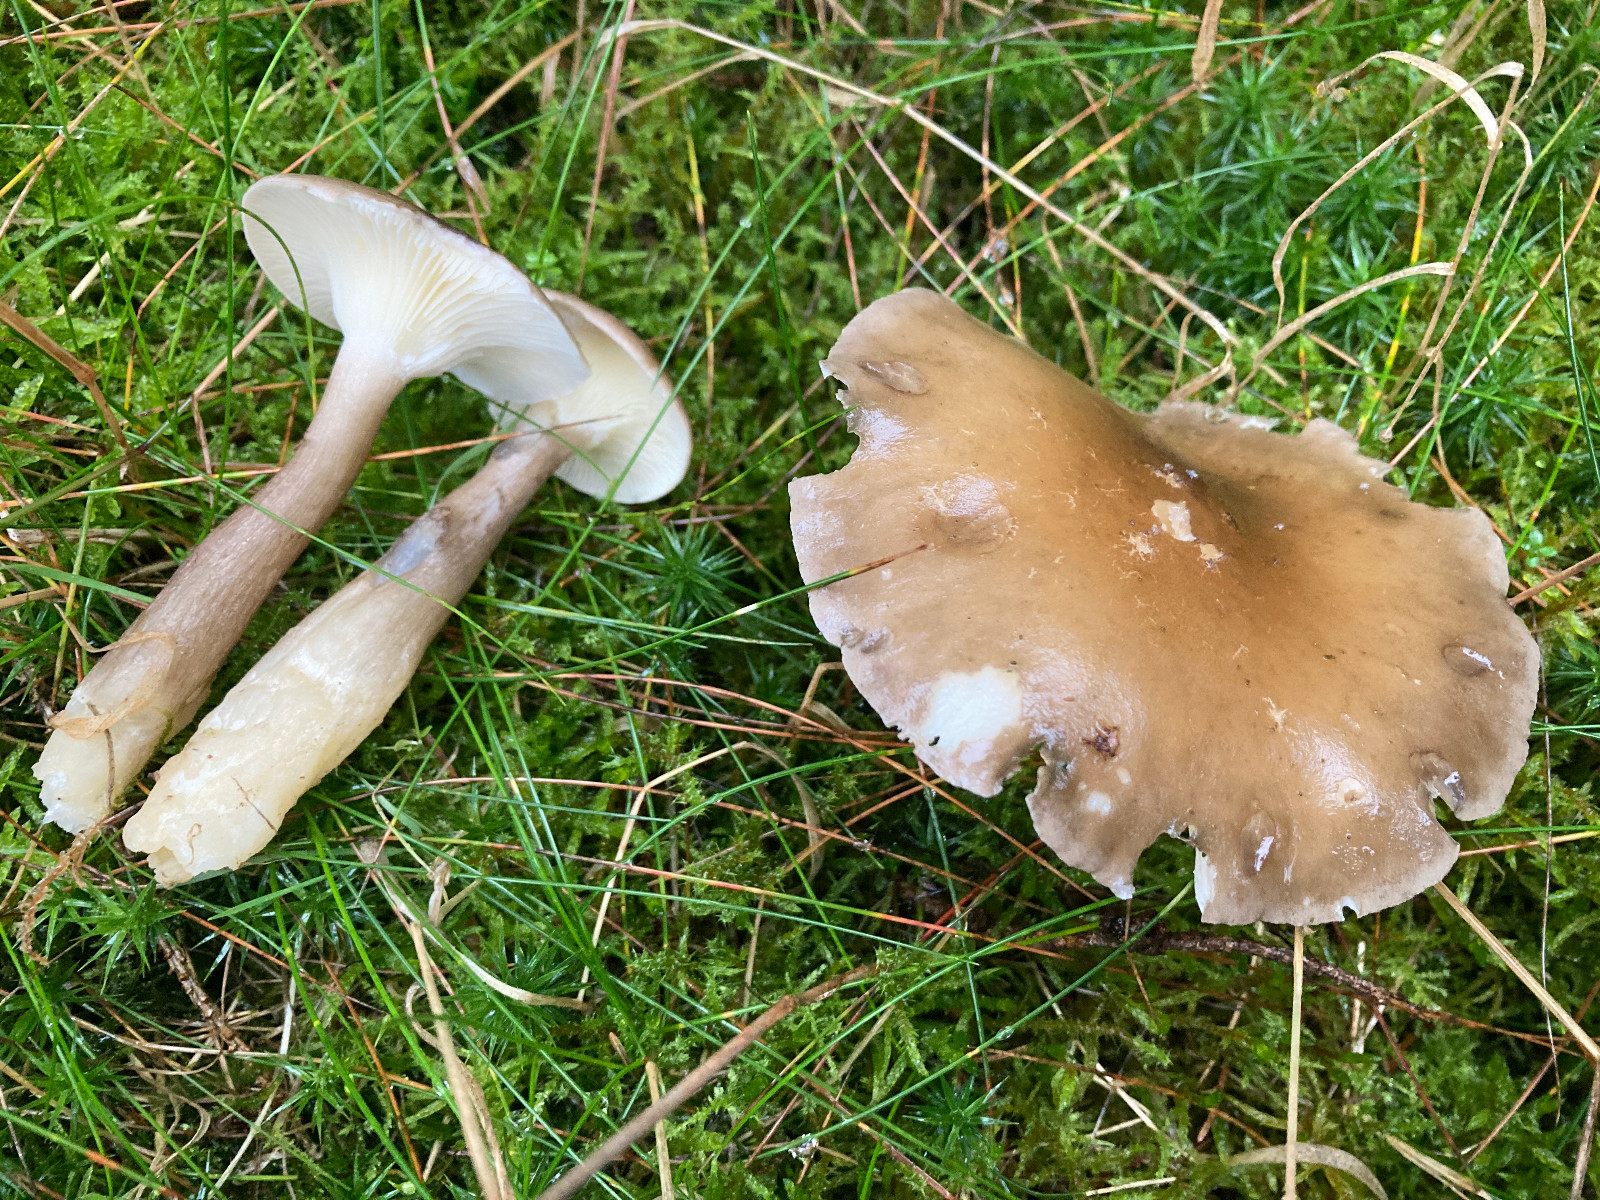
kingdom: Fungi
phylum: Basidiomycota
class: Agaricomycetes
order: Agaricales
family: Hygrophoraceae
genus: Ampulloclitocybe
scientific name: Ampulloclitocybe clavipes
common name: køllefod
